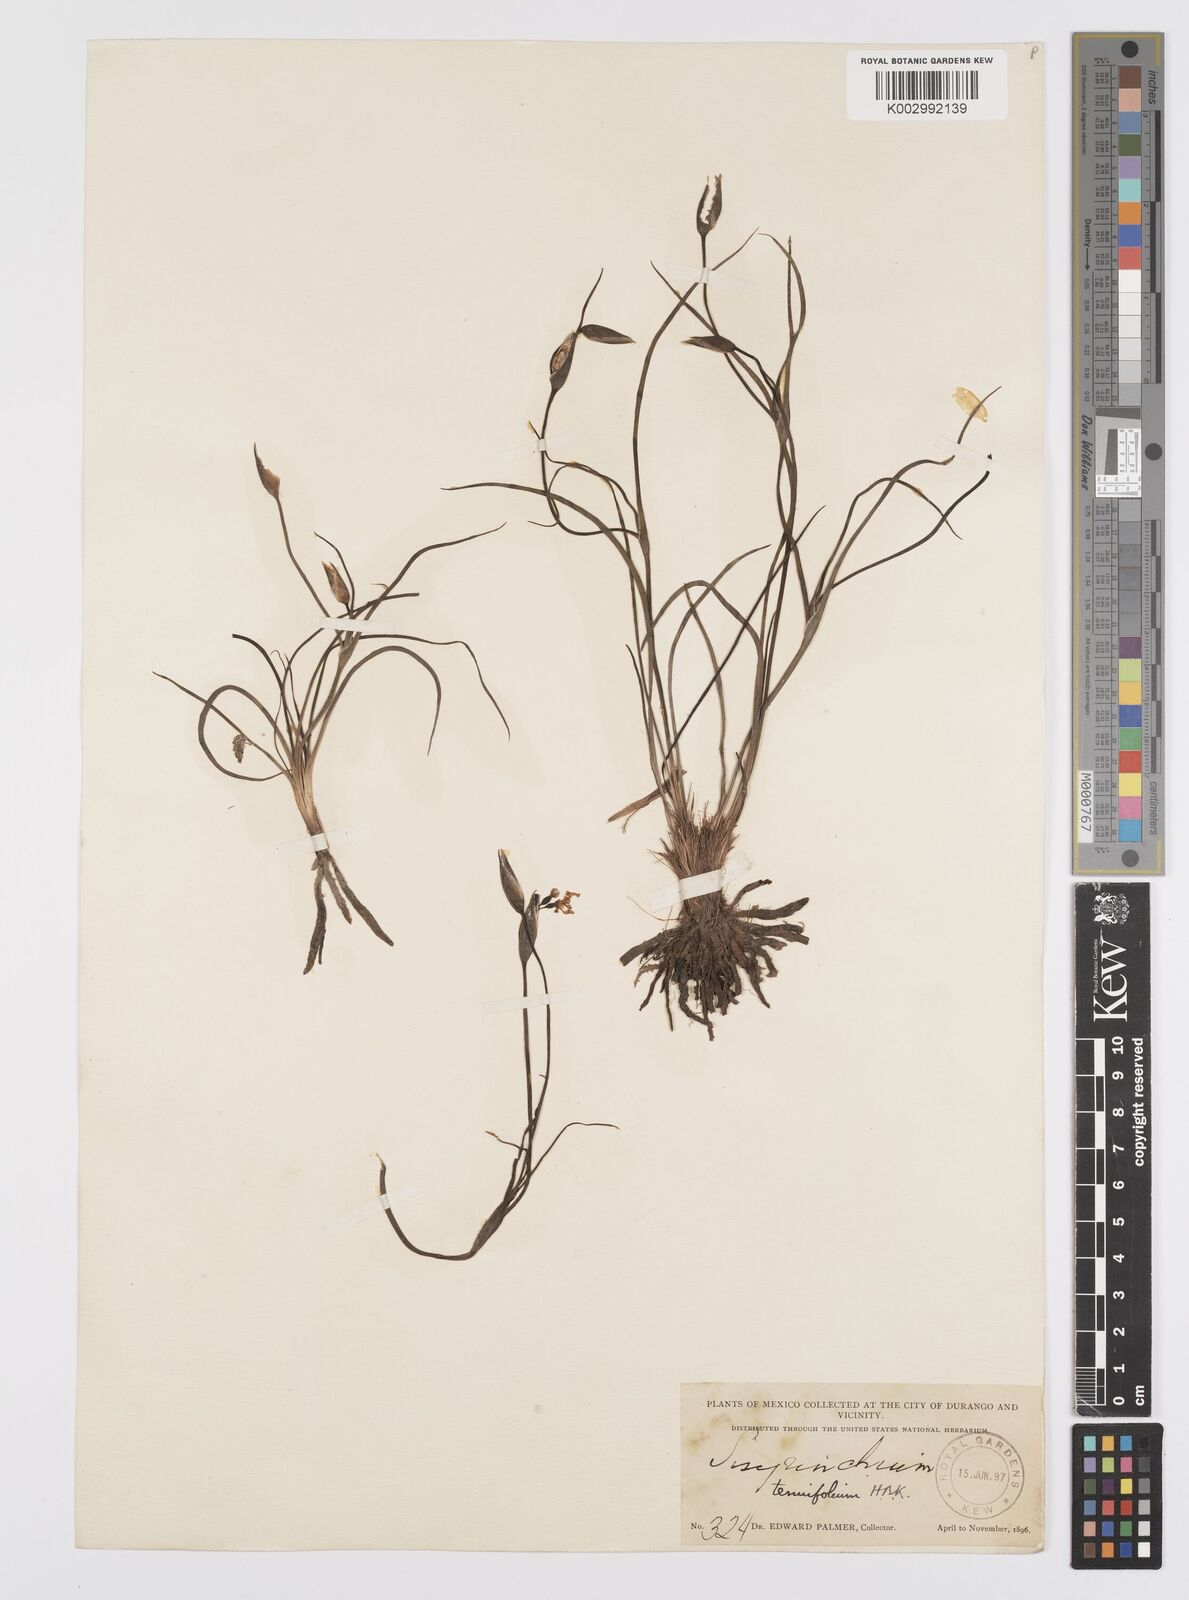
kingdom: Plantae
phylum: Tracheophyta
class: Liliopsida
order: Asparagales
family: Iridaceae
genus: Sisyrinchium
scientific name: Sisyrinchium langloisii
